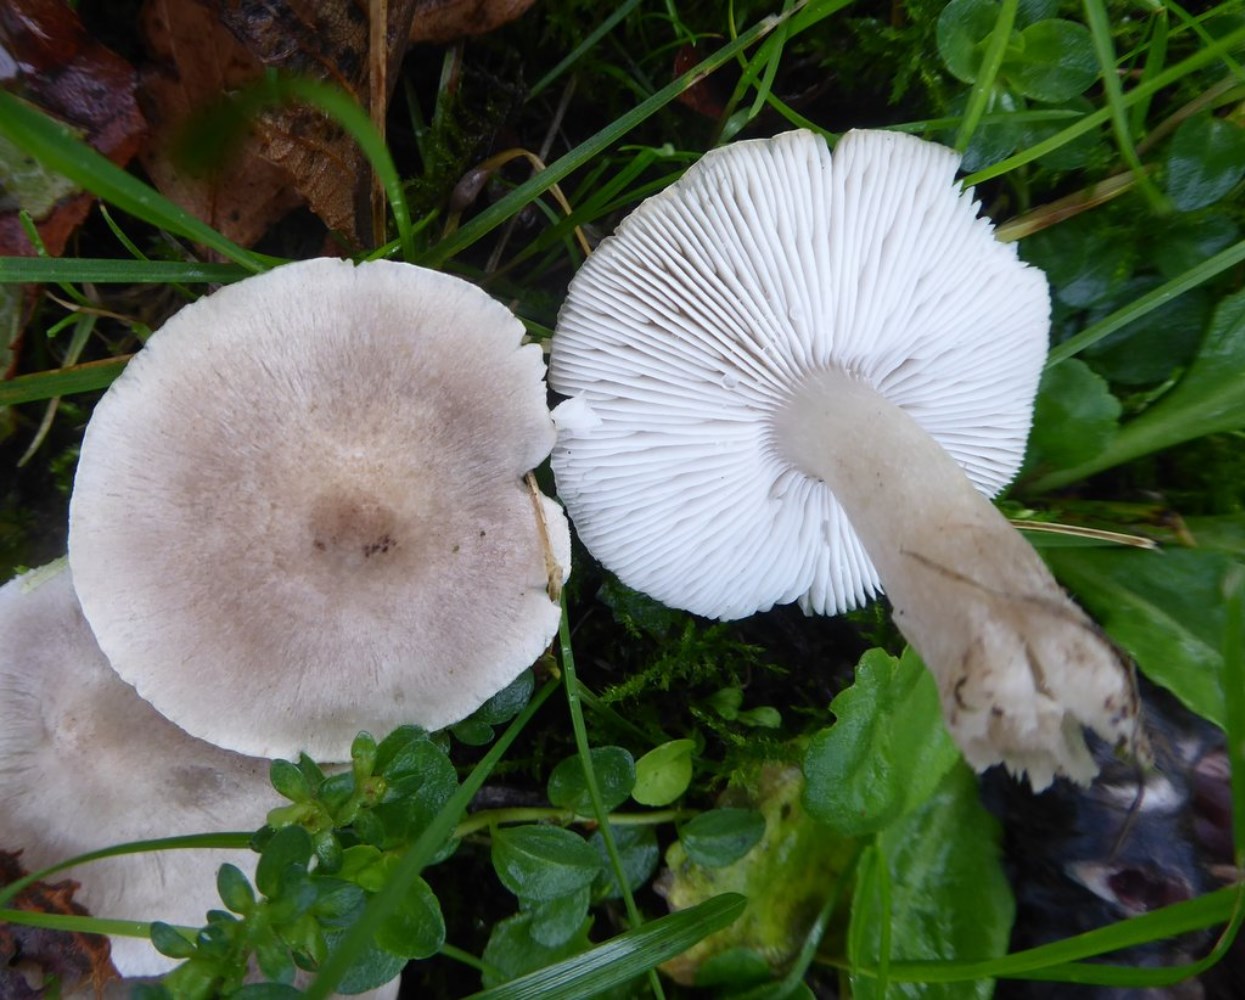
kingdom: Fungi
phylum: Basidiomycota
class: Agaricomycetes
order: Agaricales
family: Tricholomataceae
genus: Tricholoma
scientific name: Tricholoma argyraceum
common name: spids ridderhat
